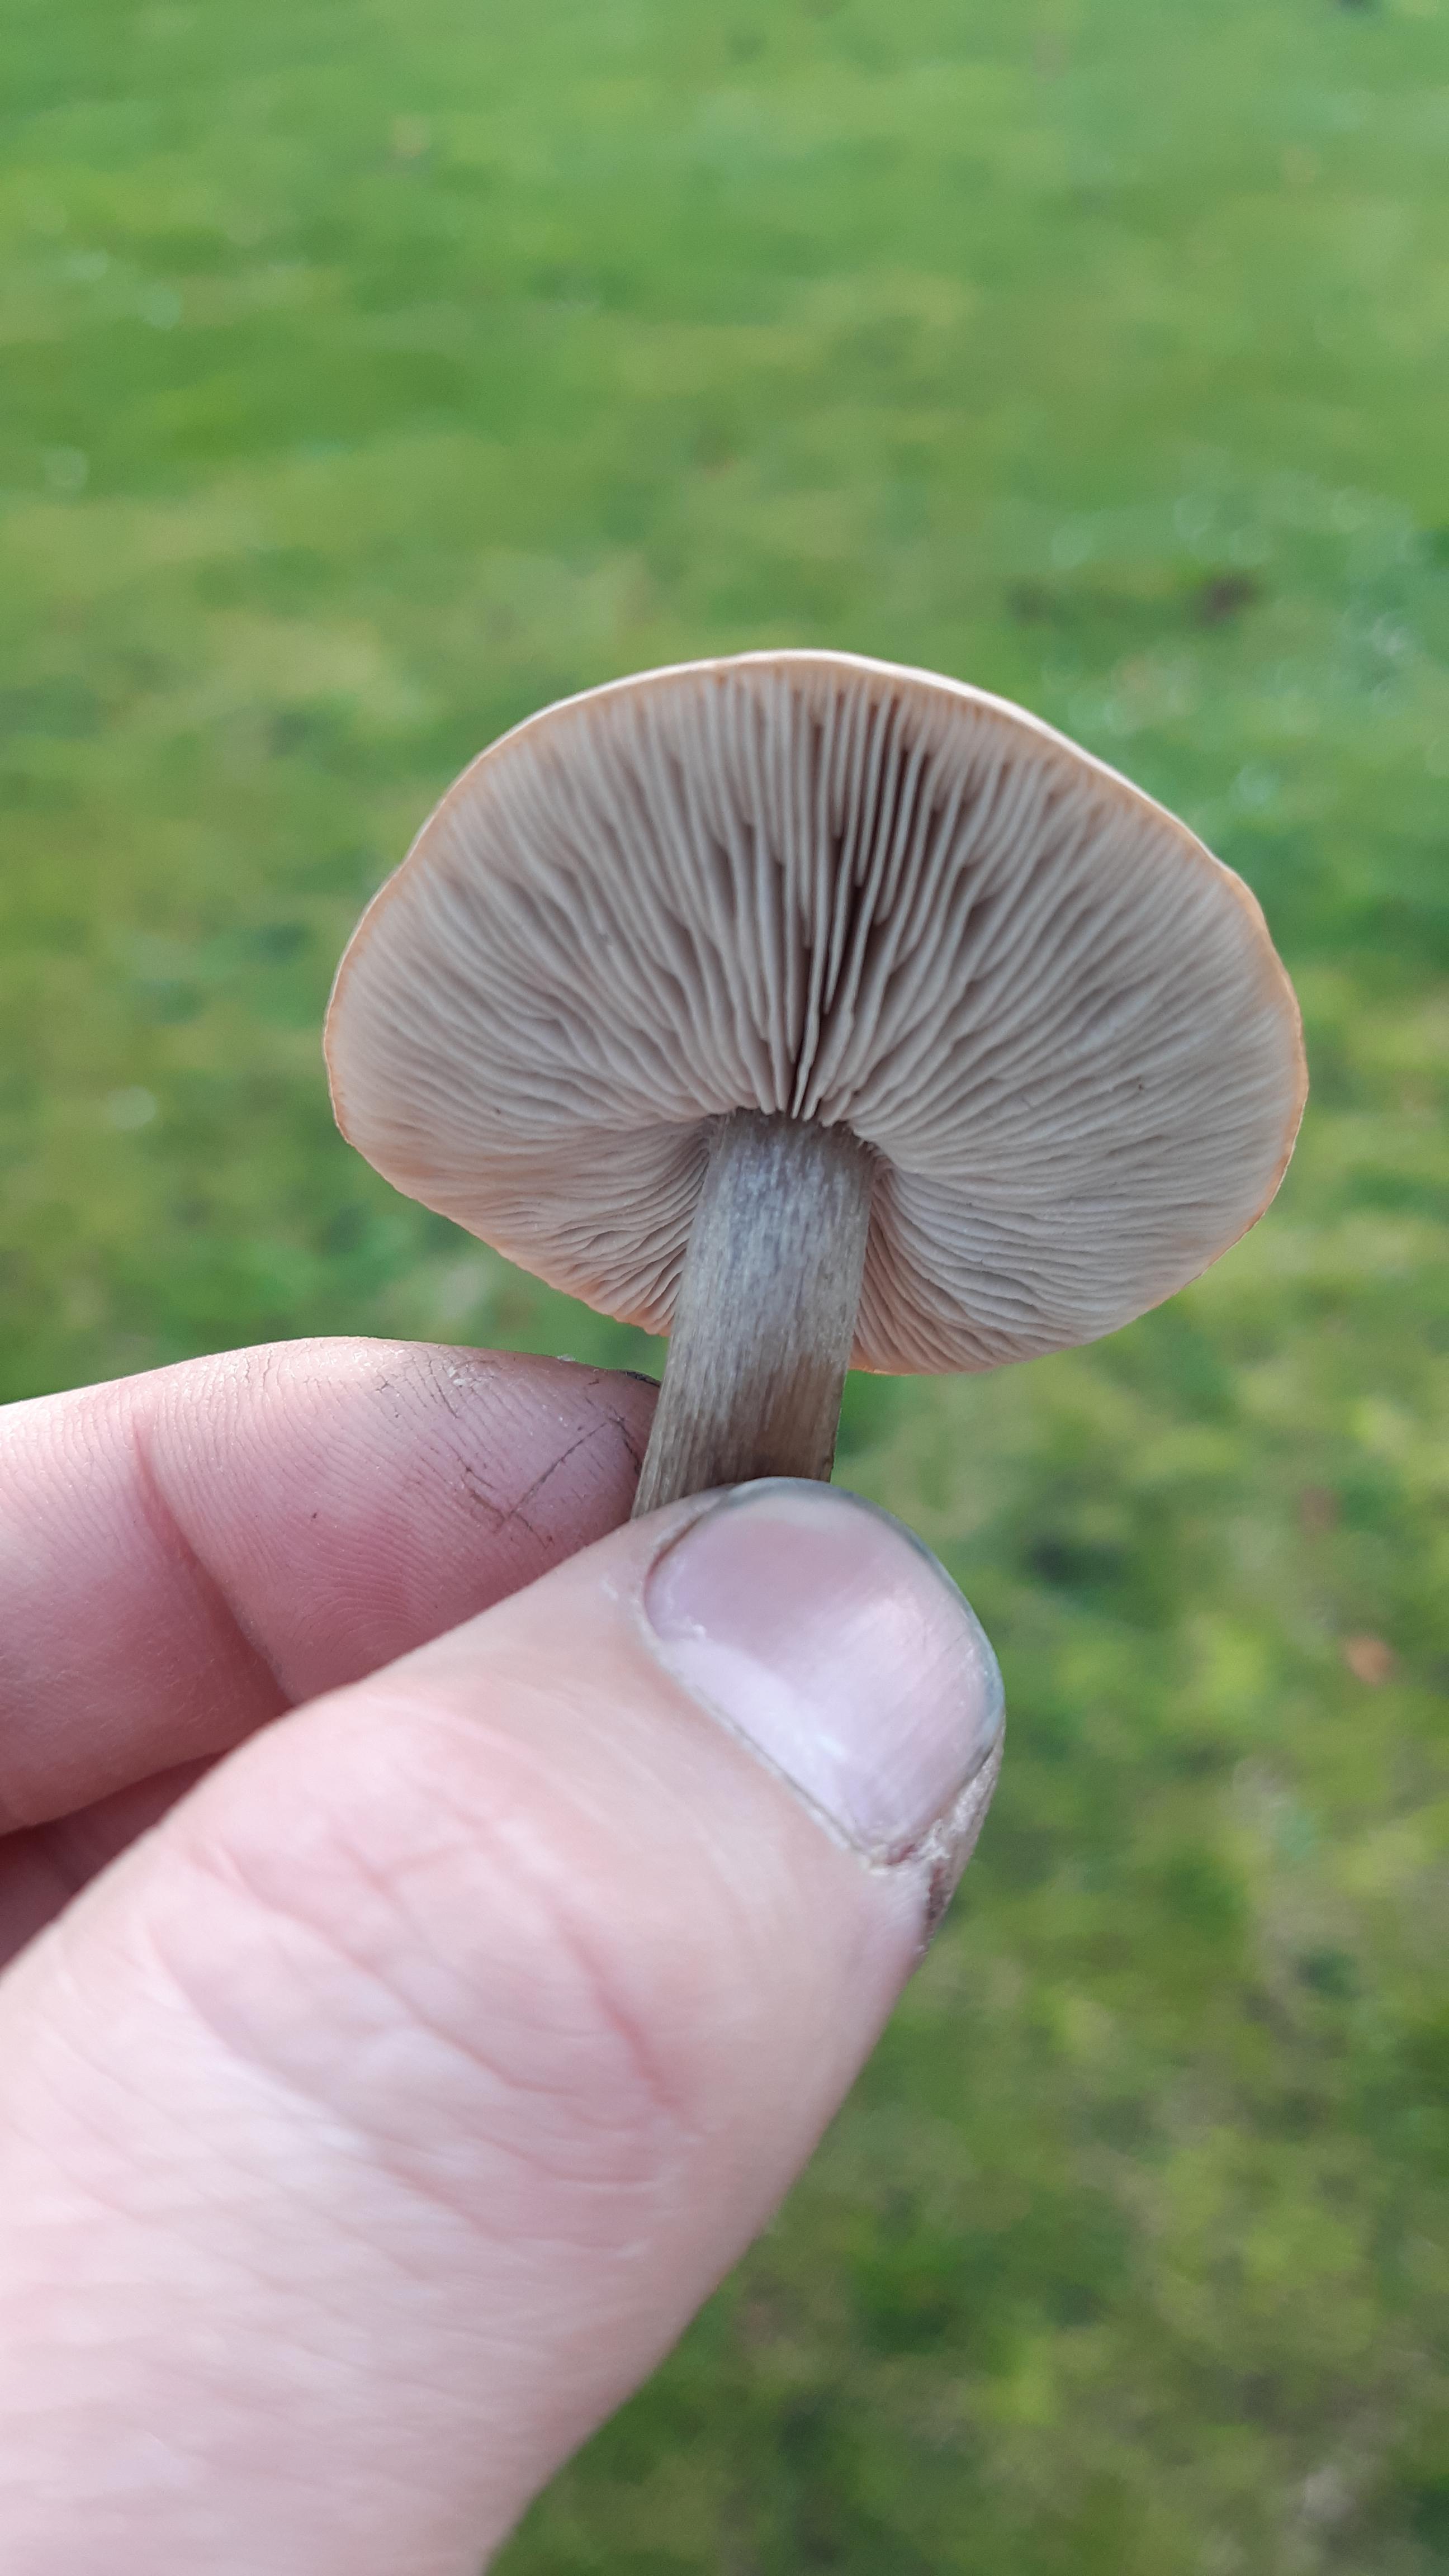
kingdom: Fungi
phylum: Basidiomycota
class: Agaricomycetes
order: Agaricales
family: Tricholomataceae
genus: Melanoleuca
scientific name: Melanoleuca
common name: munkehat
